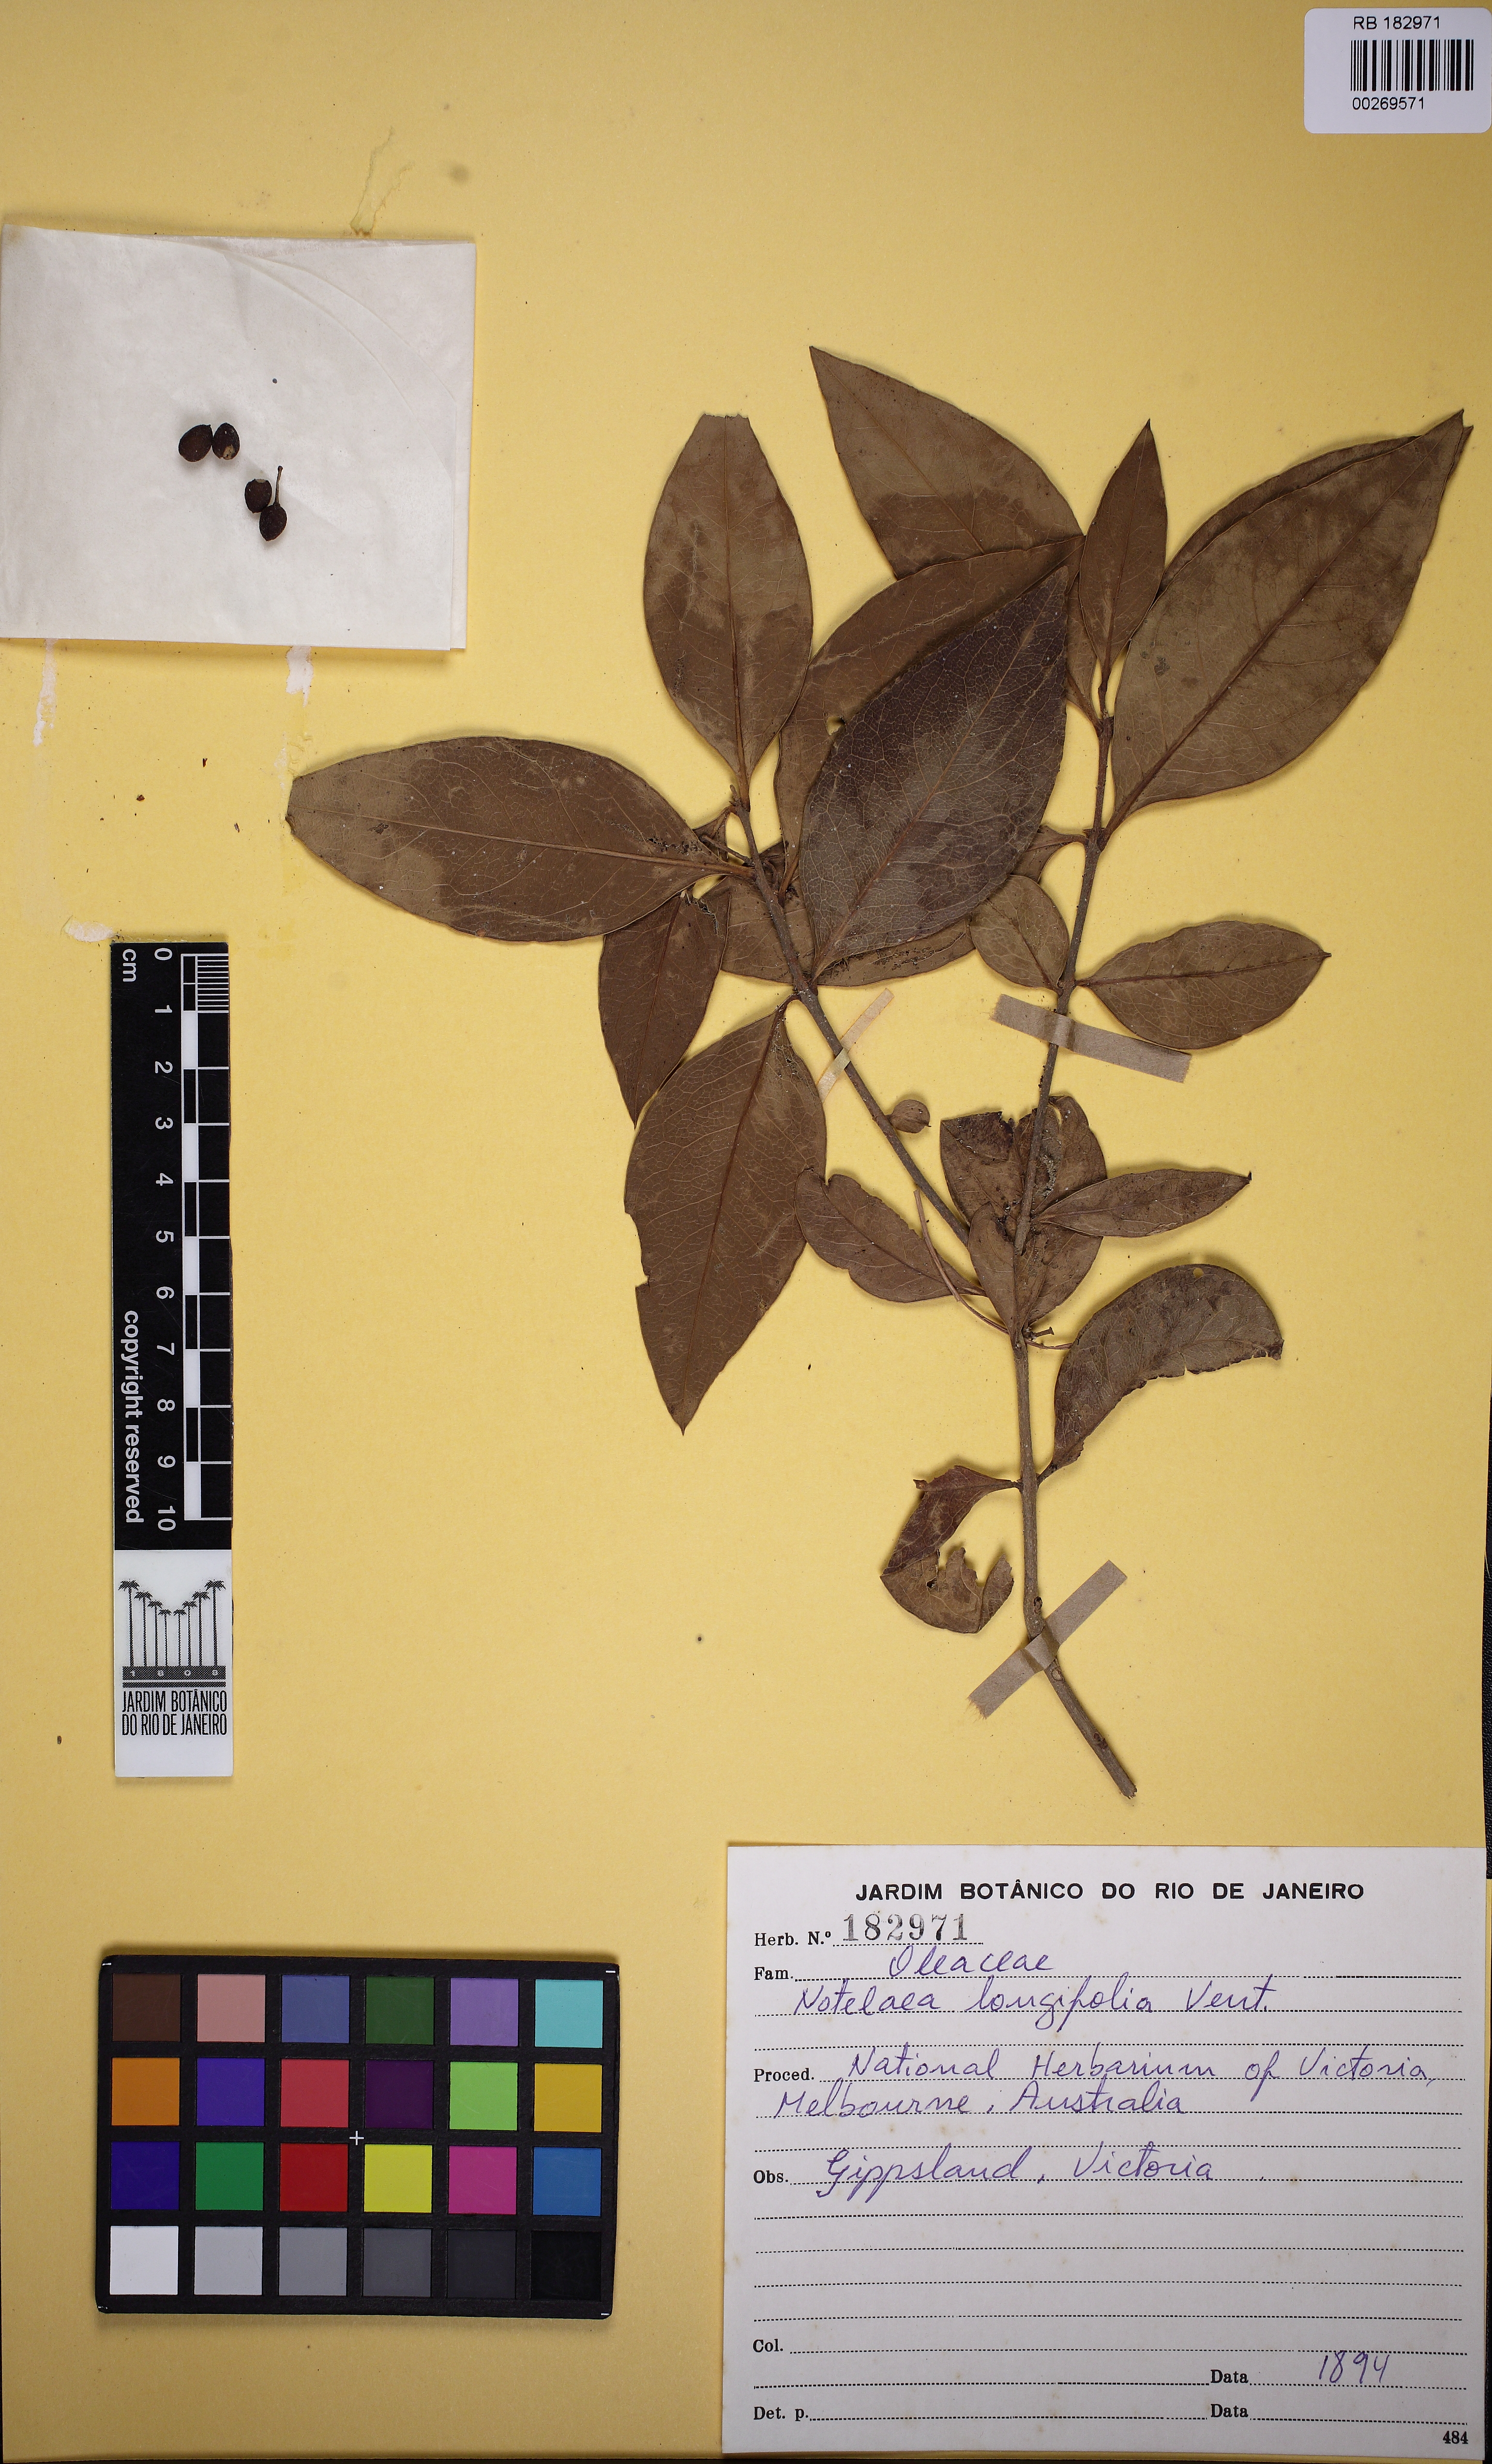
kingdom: Plantae
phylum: Tracheophyta
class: Magnoliopsida
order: Lamiales
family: Oleaceae
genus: Notelaea
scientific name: Notelaea longifolia
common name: Large mock olive
